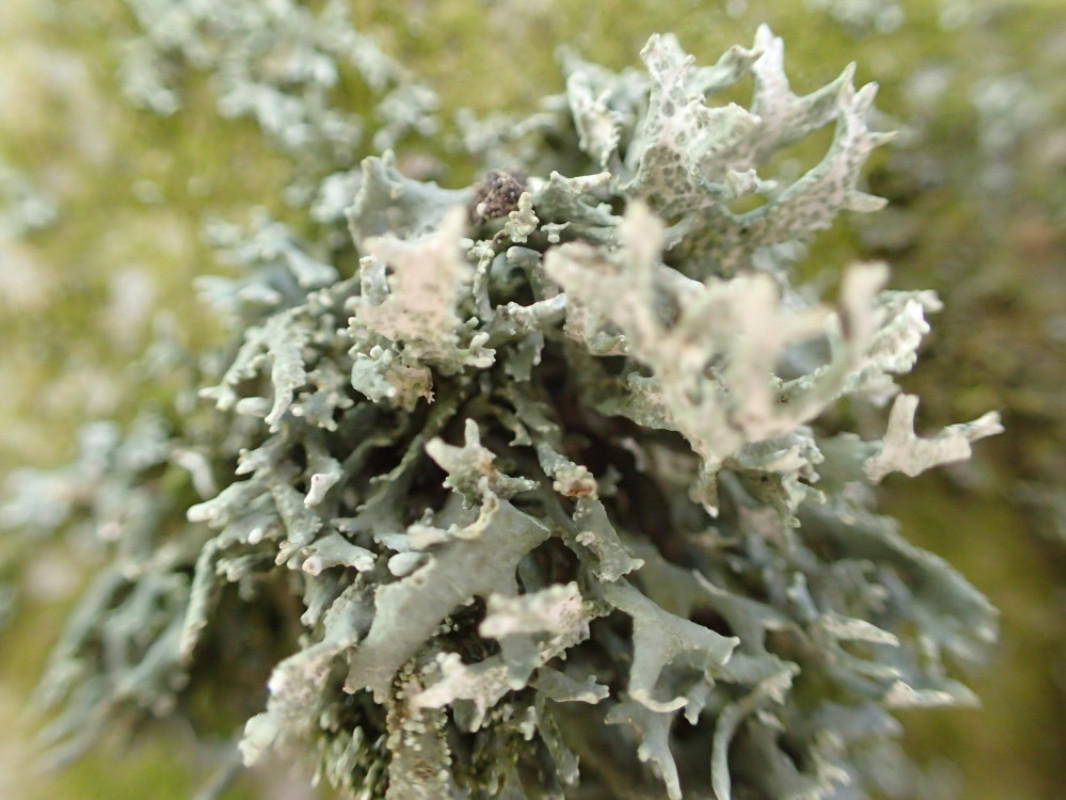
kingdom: Fungi
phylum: Ascomycota
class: Lecanoromycetes
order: Lecanorales
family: Parmeliaceae
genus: Evernia
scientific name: Evernia prunastri
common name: almindelig slåenlav
